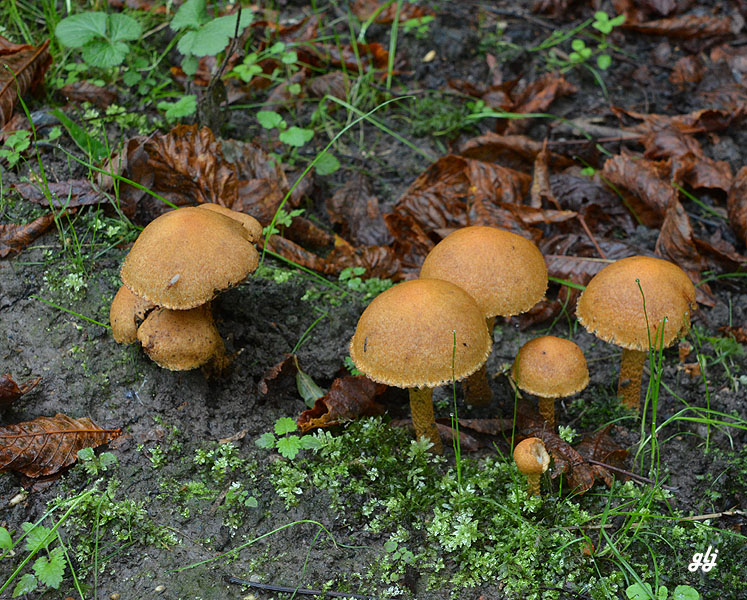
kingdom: Fungi
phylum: Basidiomycota
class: Agaricomycetes
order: Agaricales
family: Psathyrellaceae
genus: Lacrymaria
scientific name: Lacrymaria pyrotricha
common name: ildhåret mørkhat
